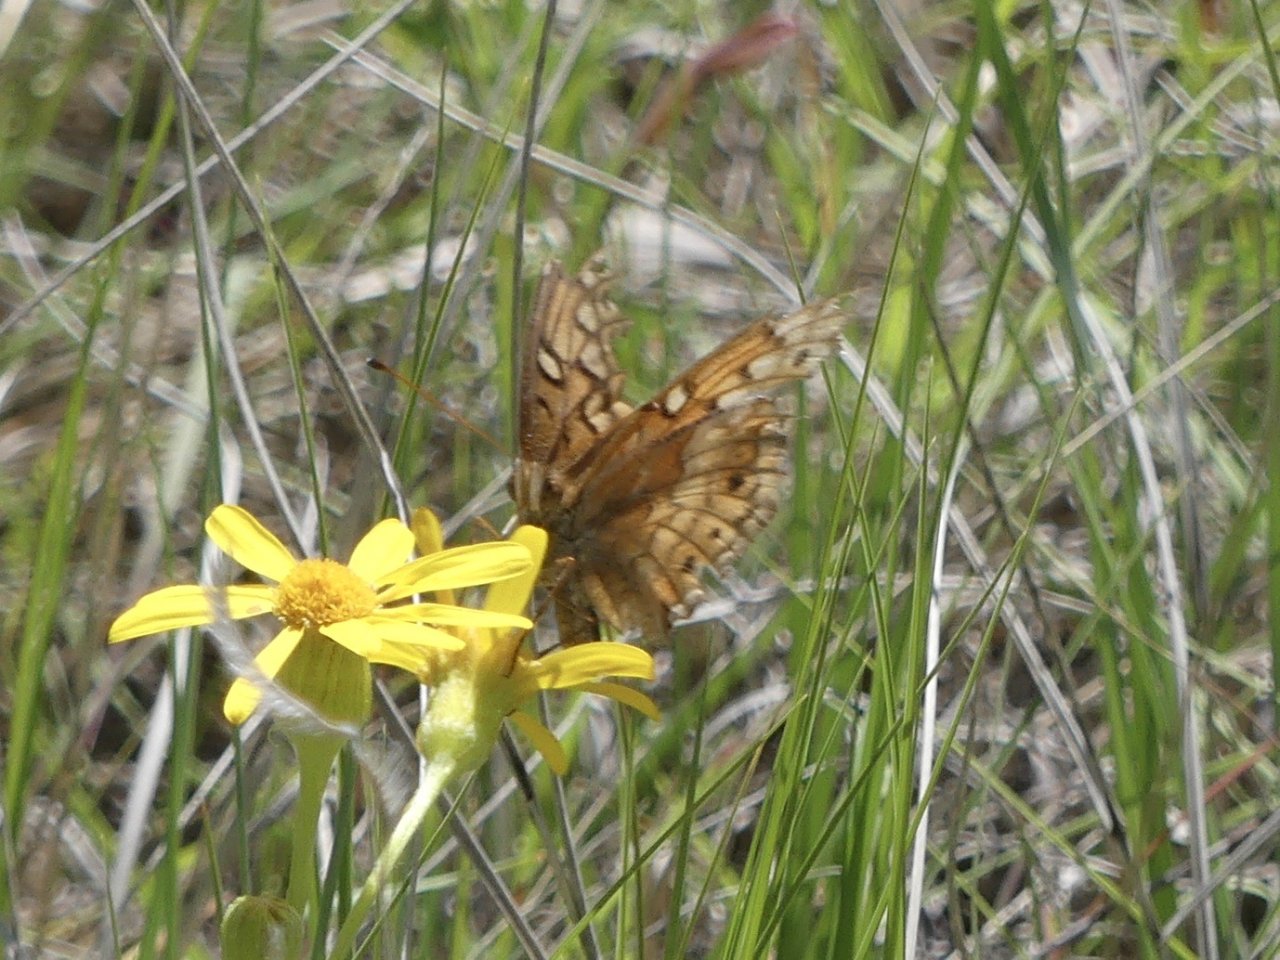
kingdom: Animalia
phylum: Arthropoda
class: Insecta
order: Lepidoptera
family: Nymphalidae
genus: Euptoieta
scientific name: Euptoieta claudia
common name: Variegated Fritillary
